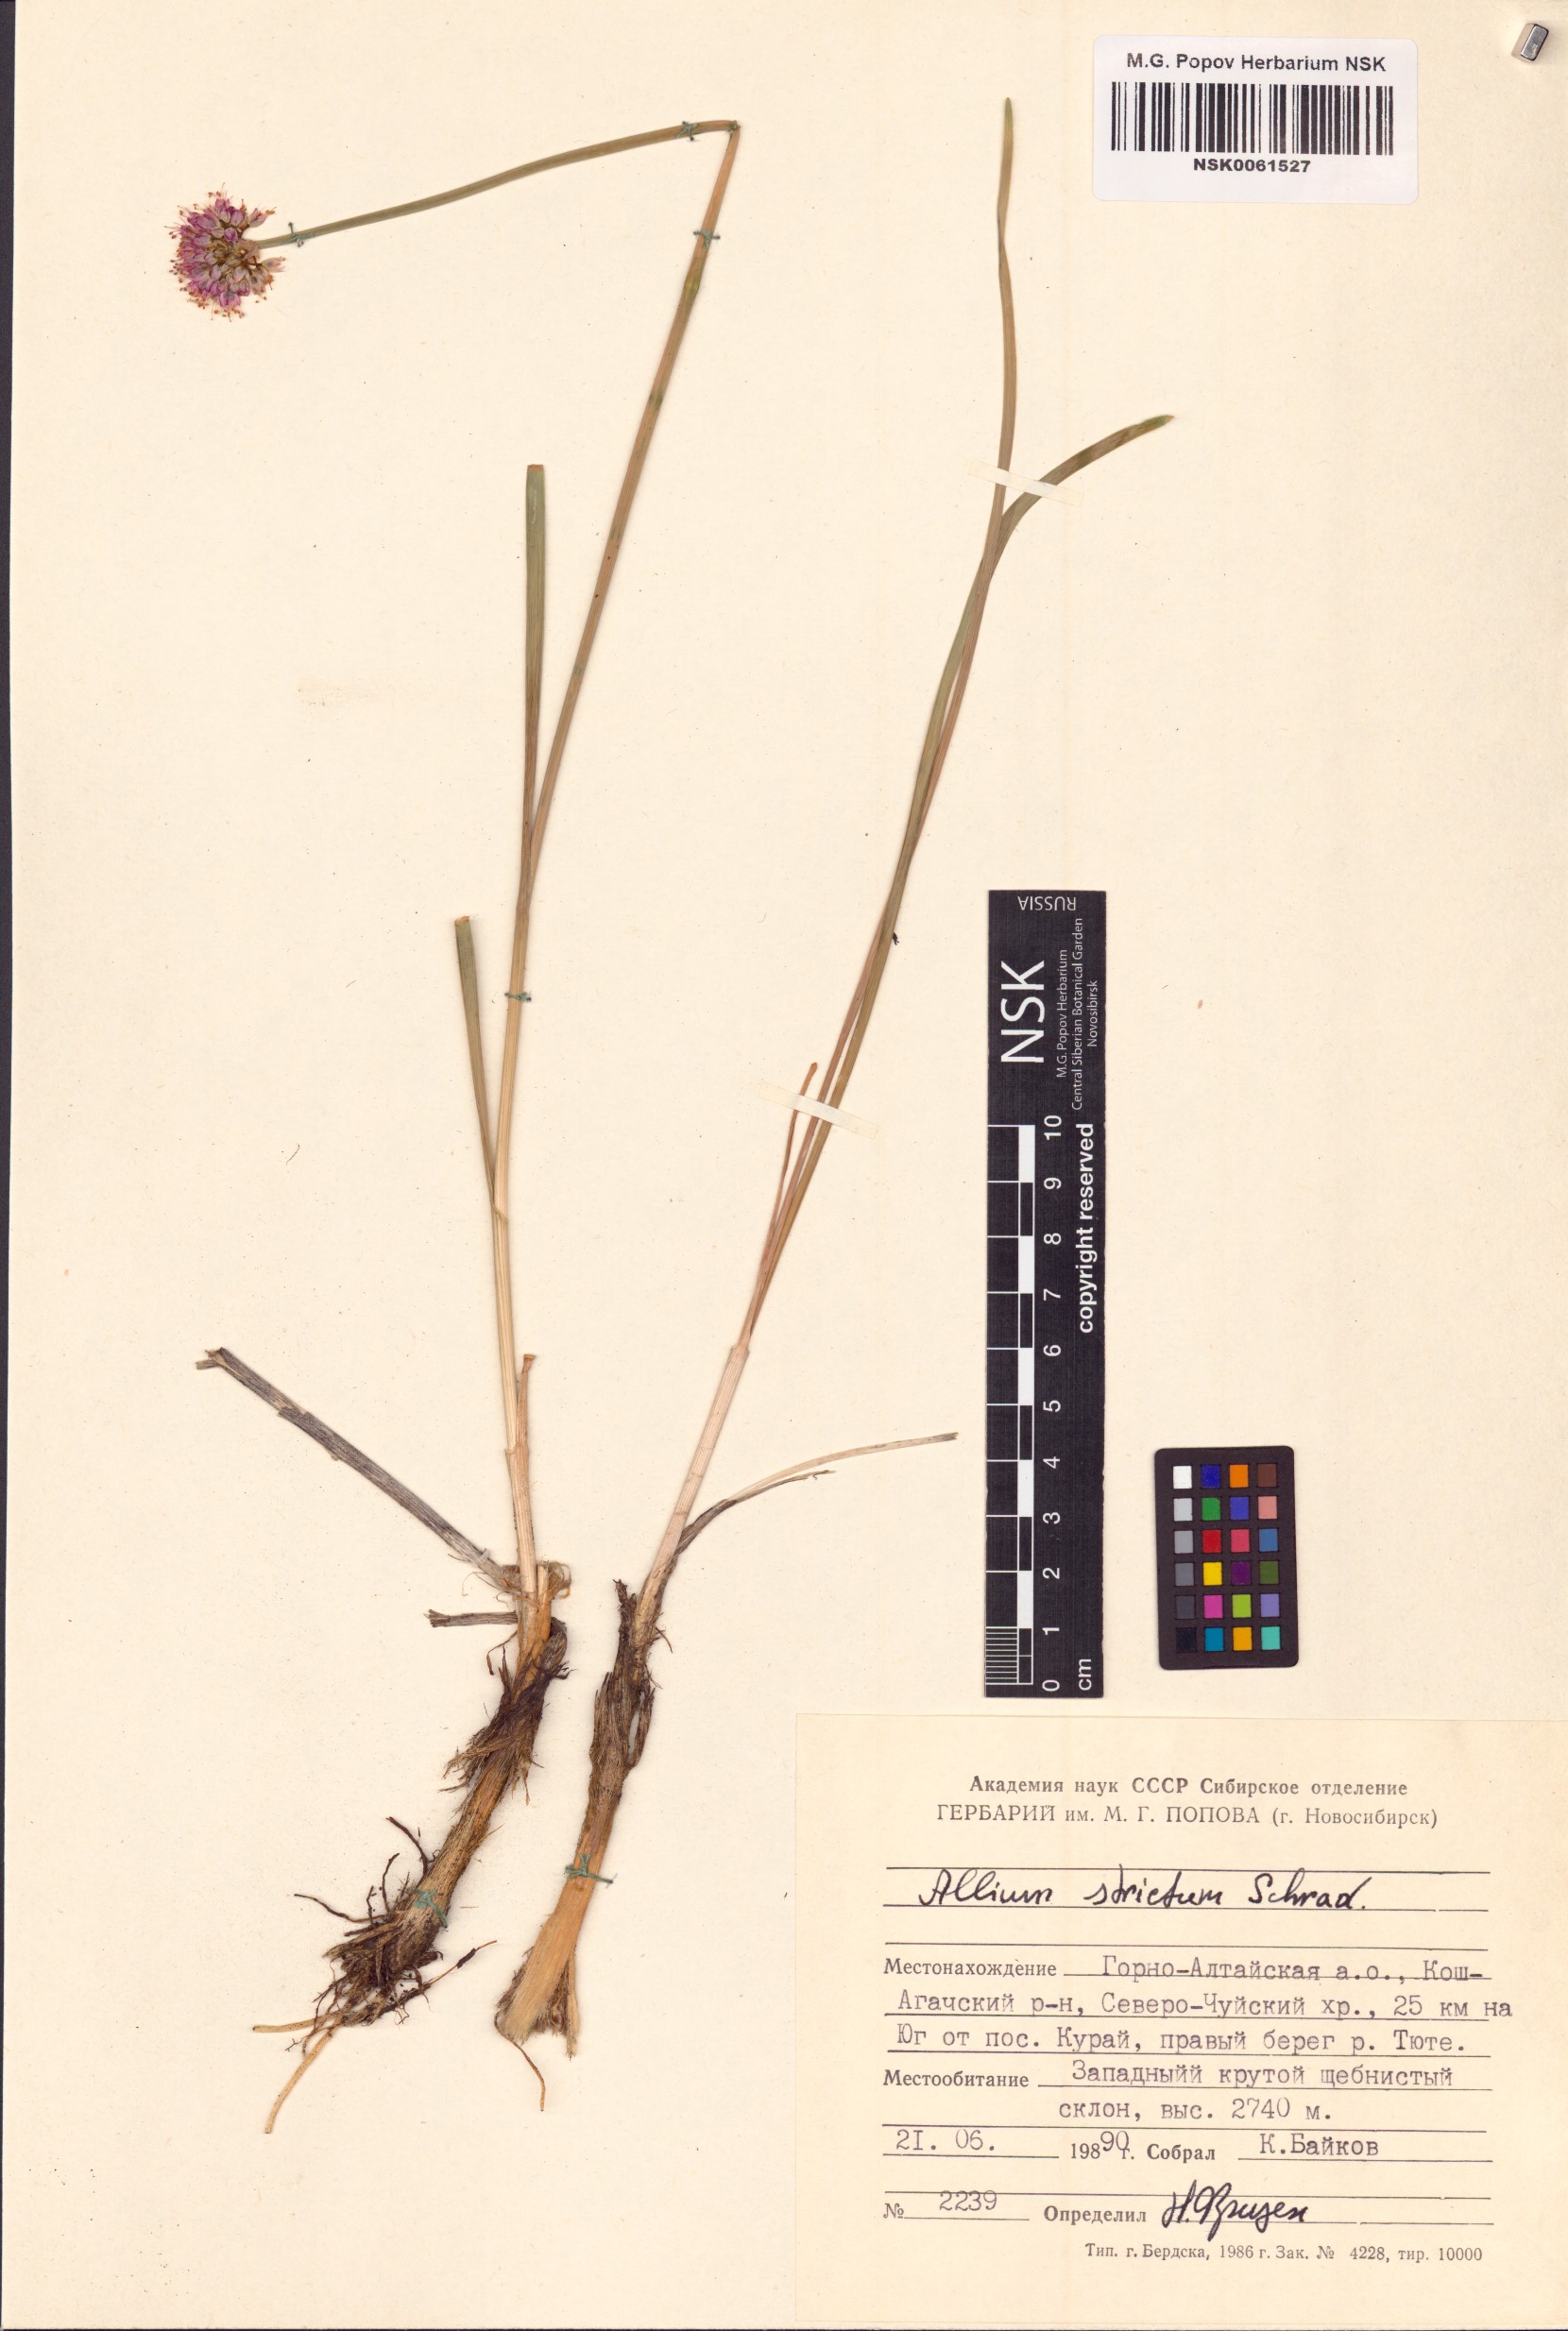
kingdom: Plantae
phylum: Tracheophyta
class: Liliopsida
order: Asparagales
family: Amaryllidaceae
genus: Allium
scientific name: Allium strictum
